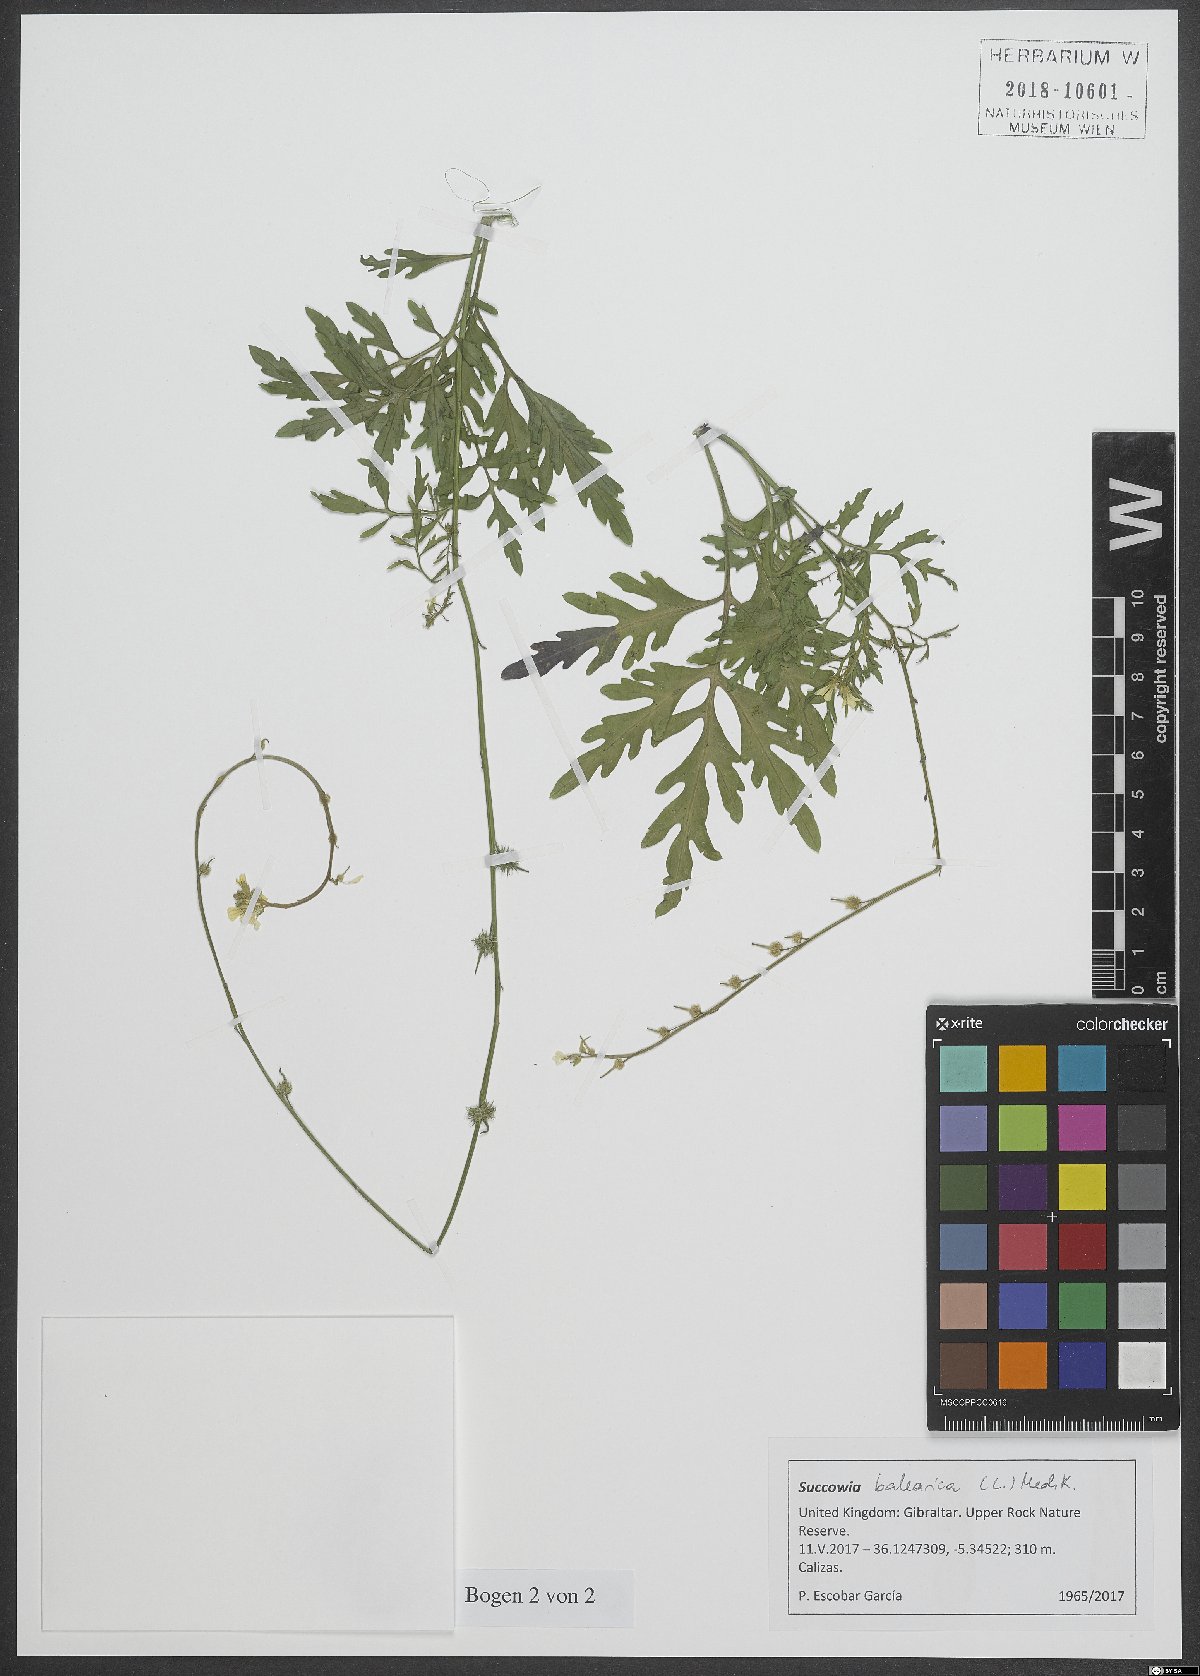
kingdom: Plantae
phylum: Tracheophyta
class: Magnoliopsida
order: Brassicales
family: Brassicaceae
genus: Succowia
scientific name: Succowia balearica
